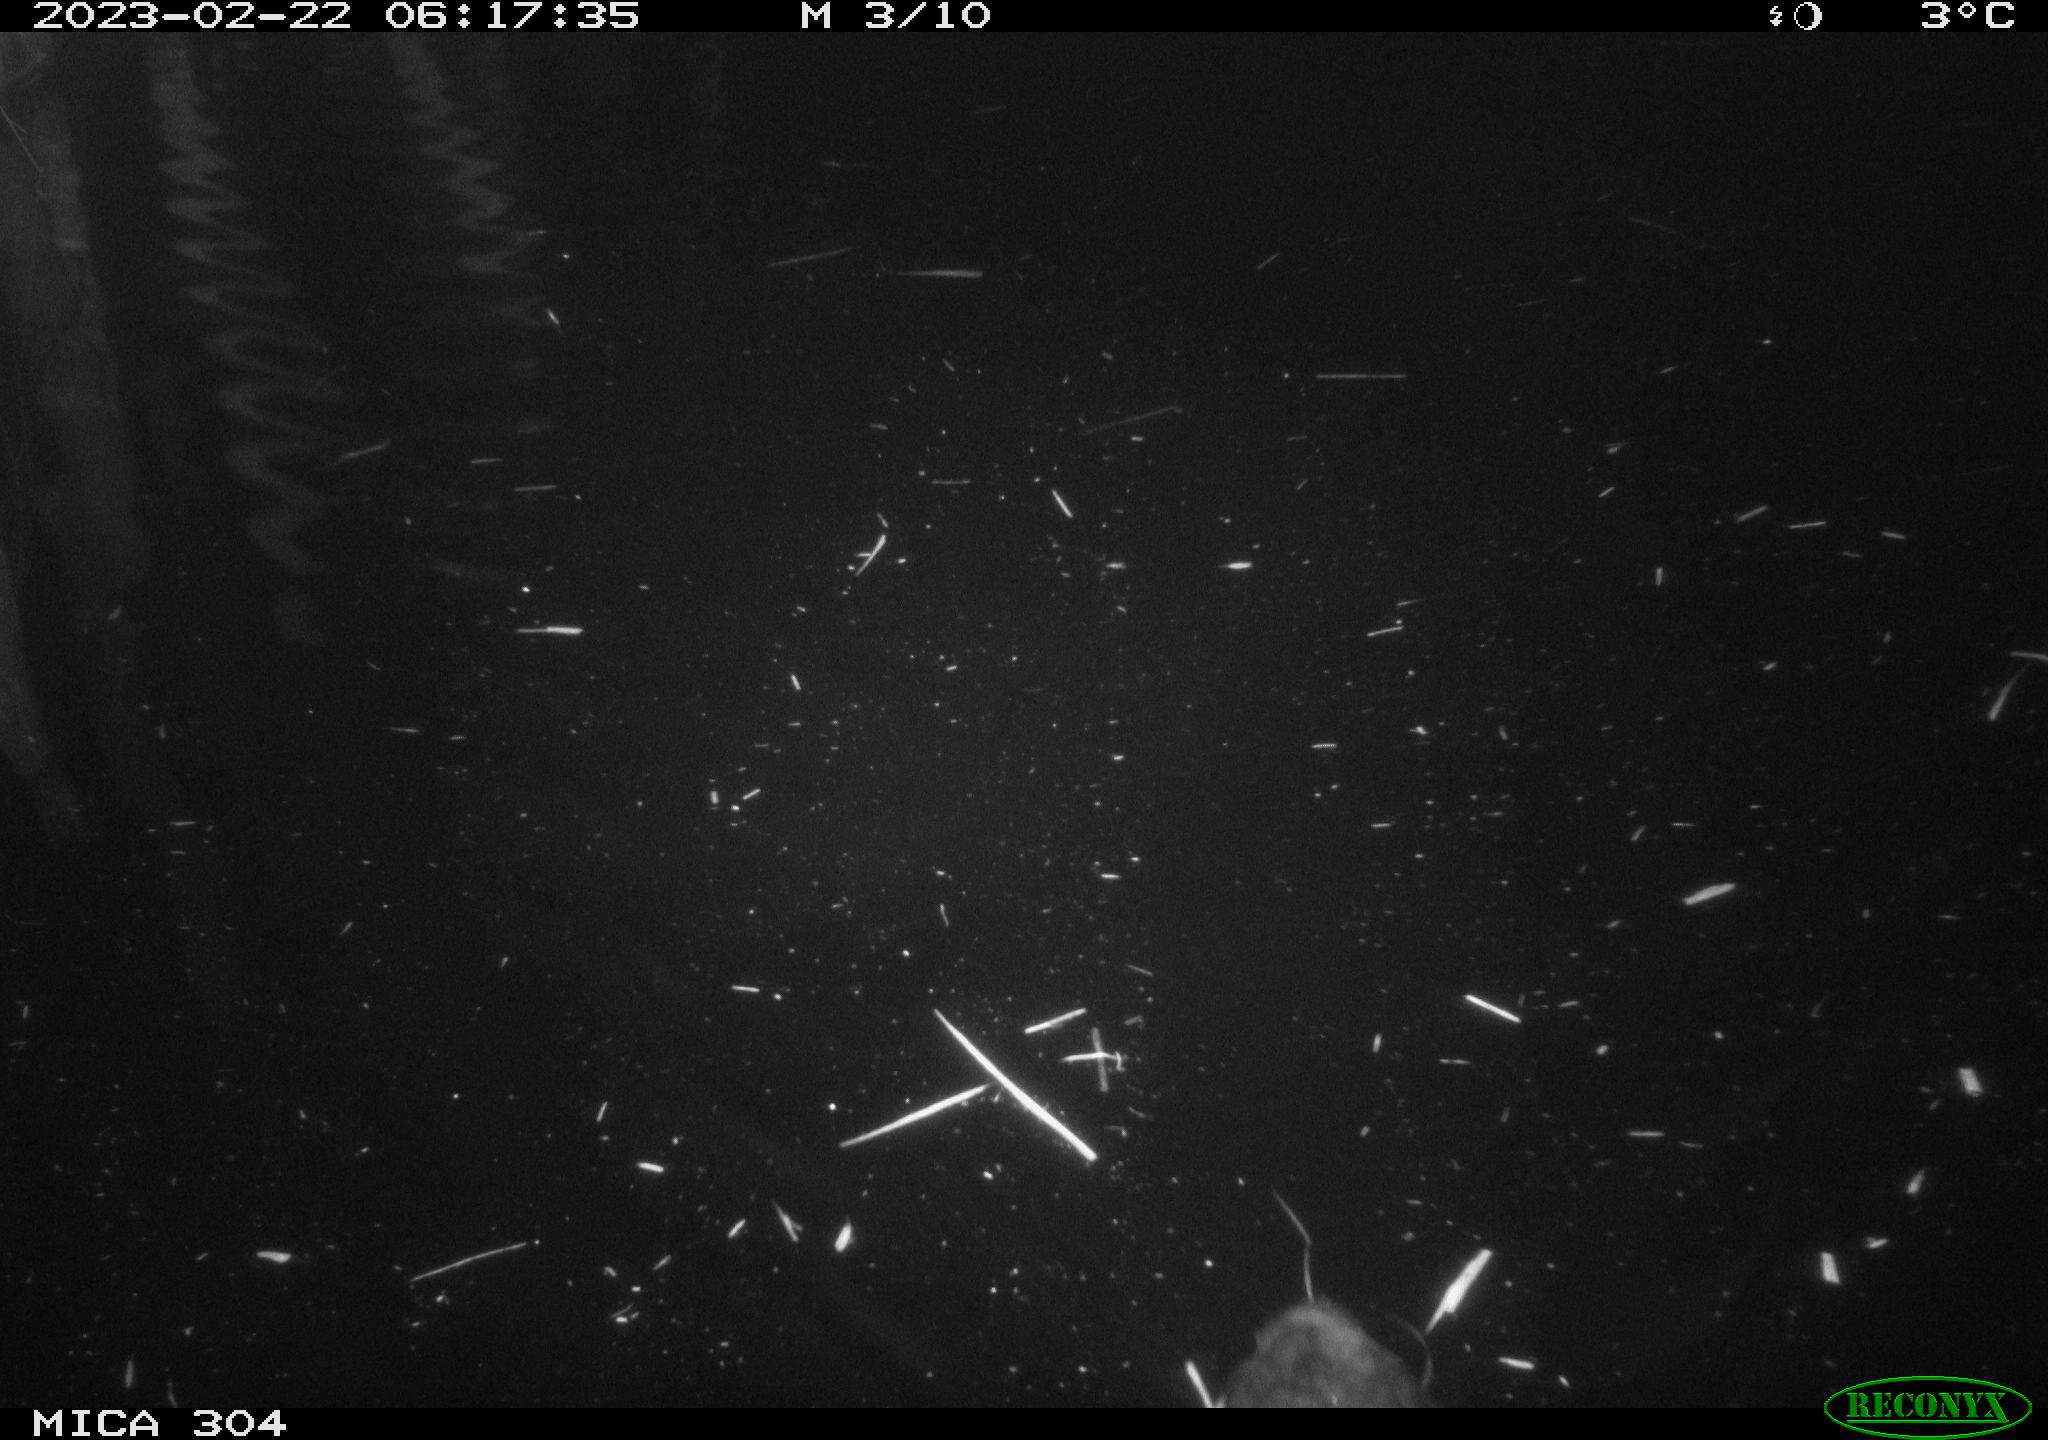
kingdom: Animalia
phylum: Chordata
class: Aves
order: Gruiformes
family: Rallidae
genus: Fulica
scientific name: Fulica atra
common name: Eurasian coot
